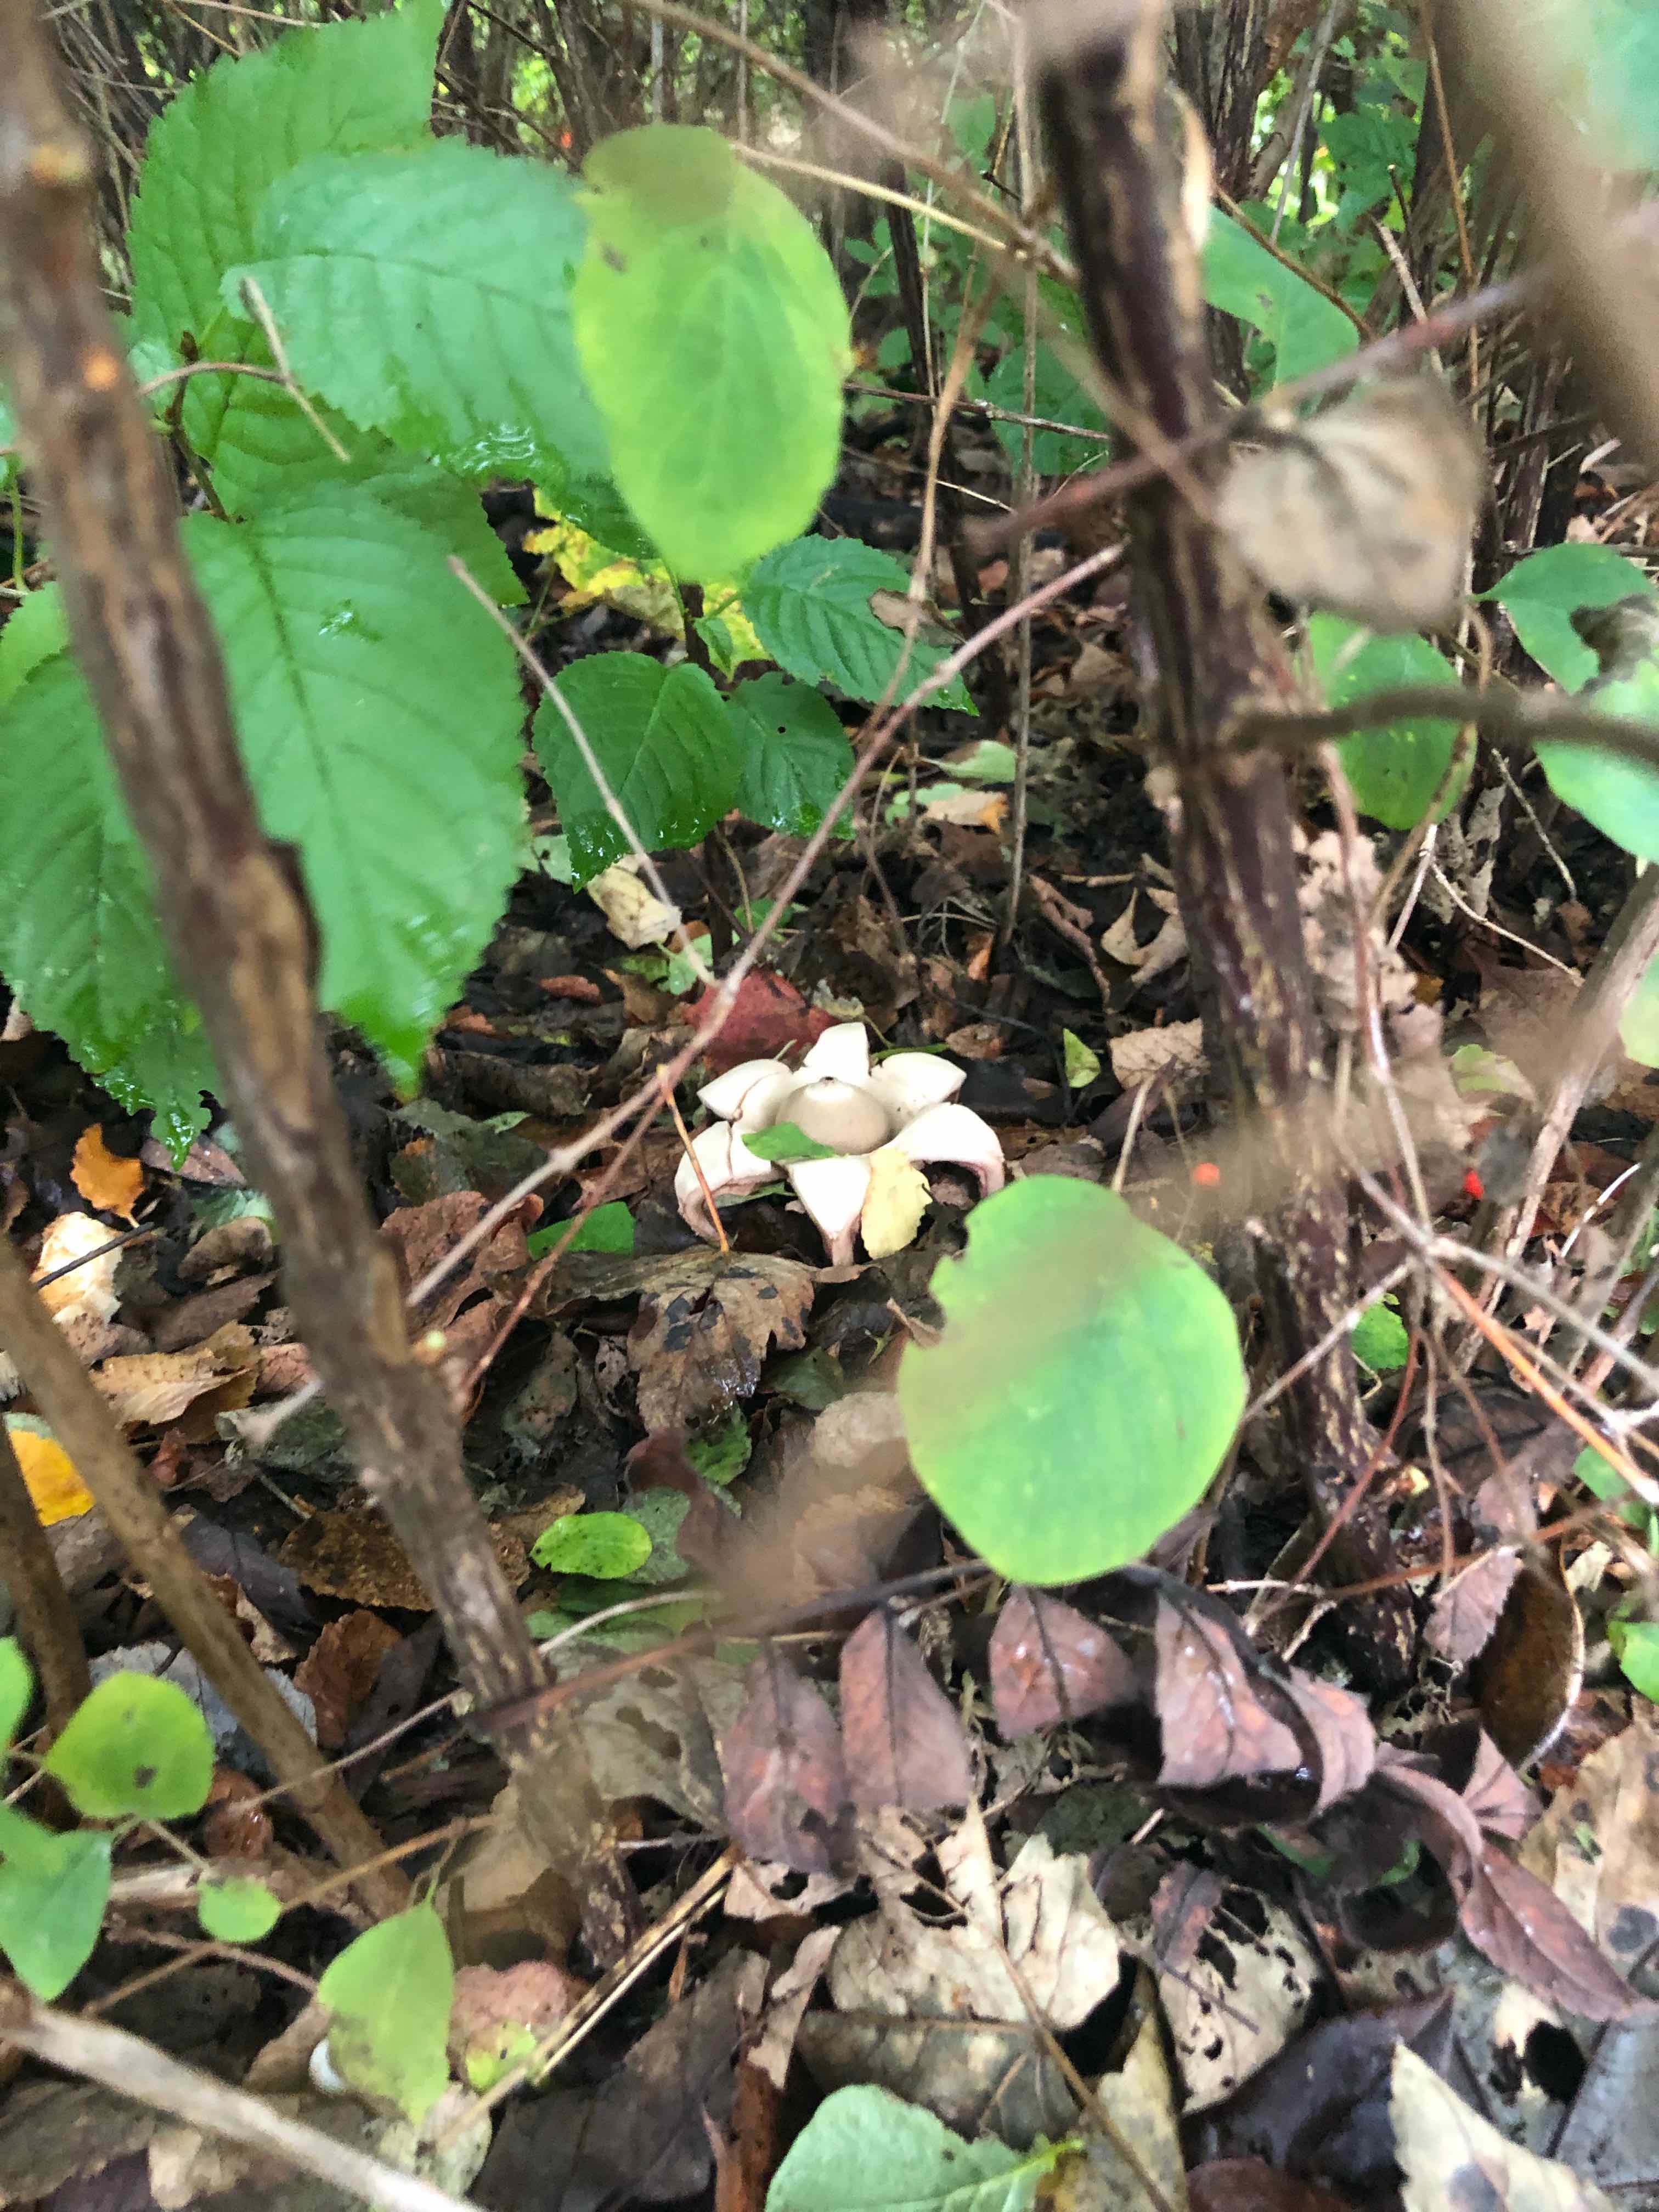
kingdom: Fungi
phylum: Basidiomycota
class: Agaricomycetes
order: Geastrales
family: Geastraceae
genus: Geastrum
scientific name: Geastrum michelianum
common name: kødet stjernebold
